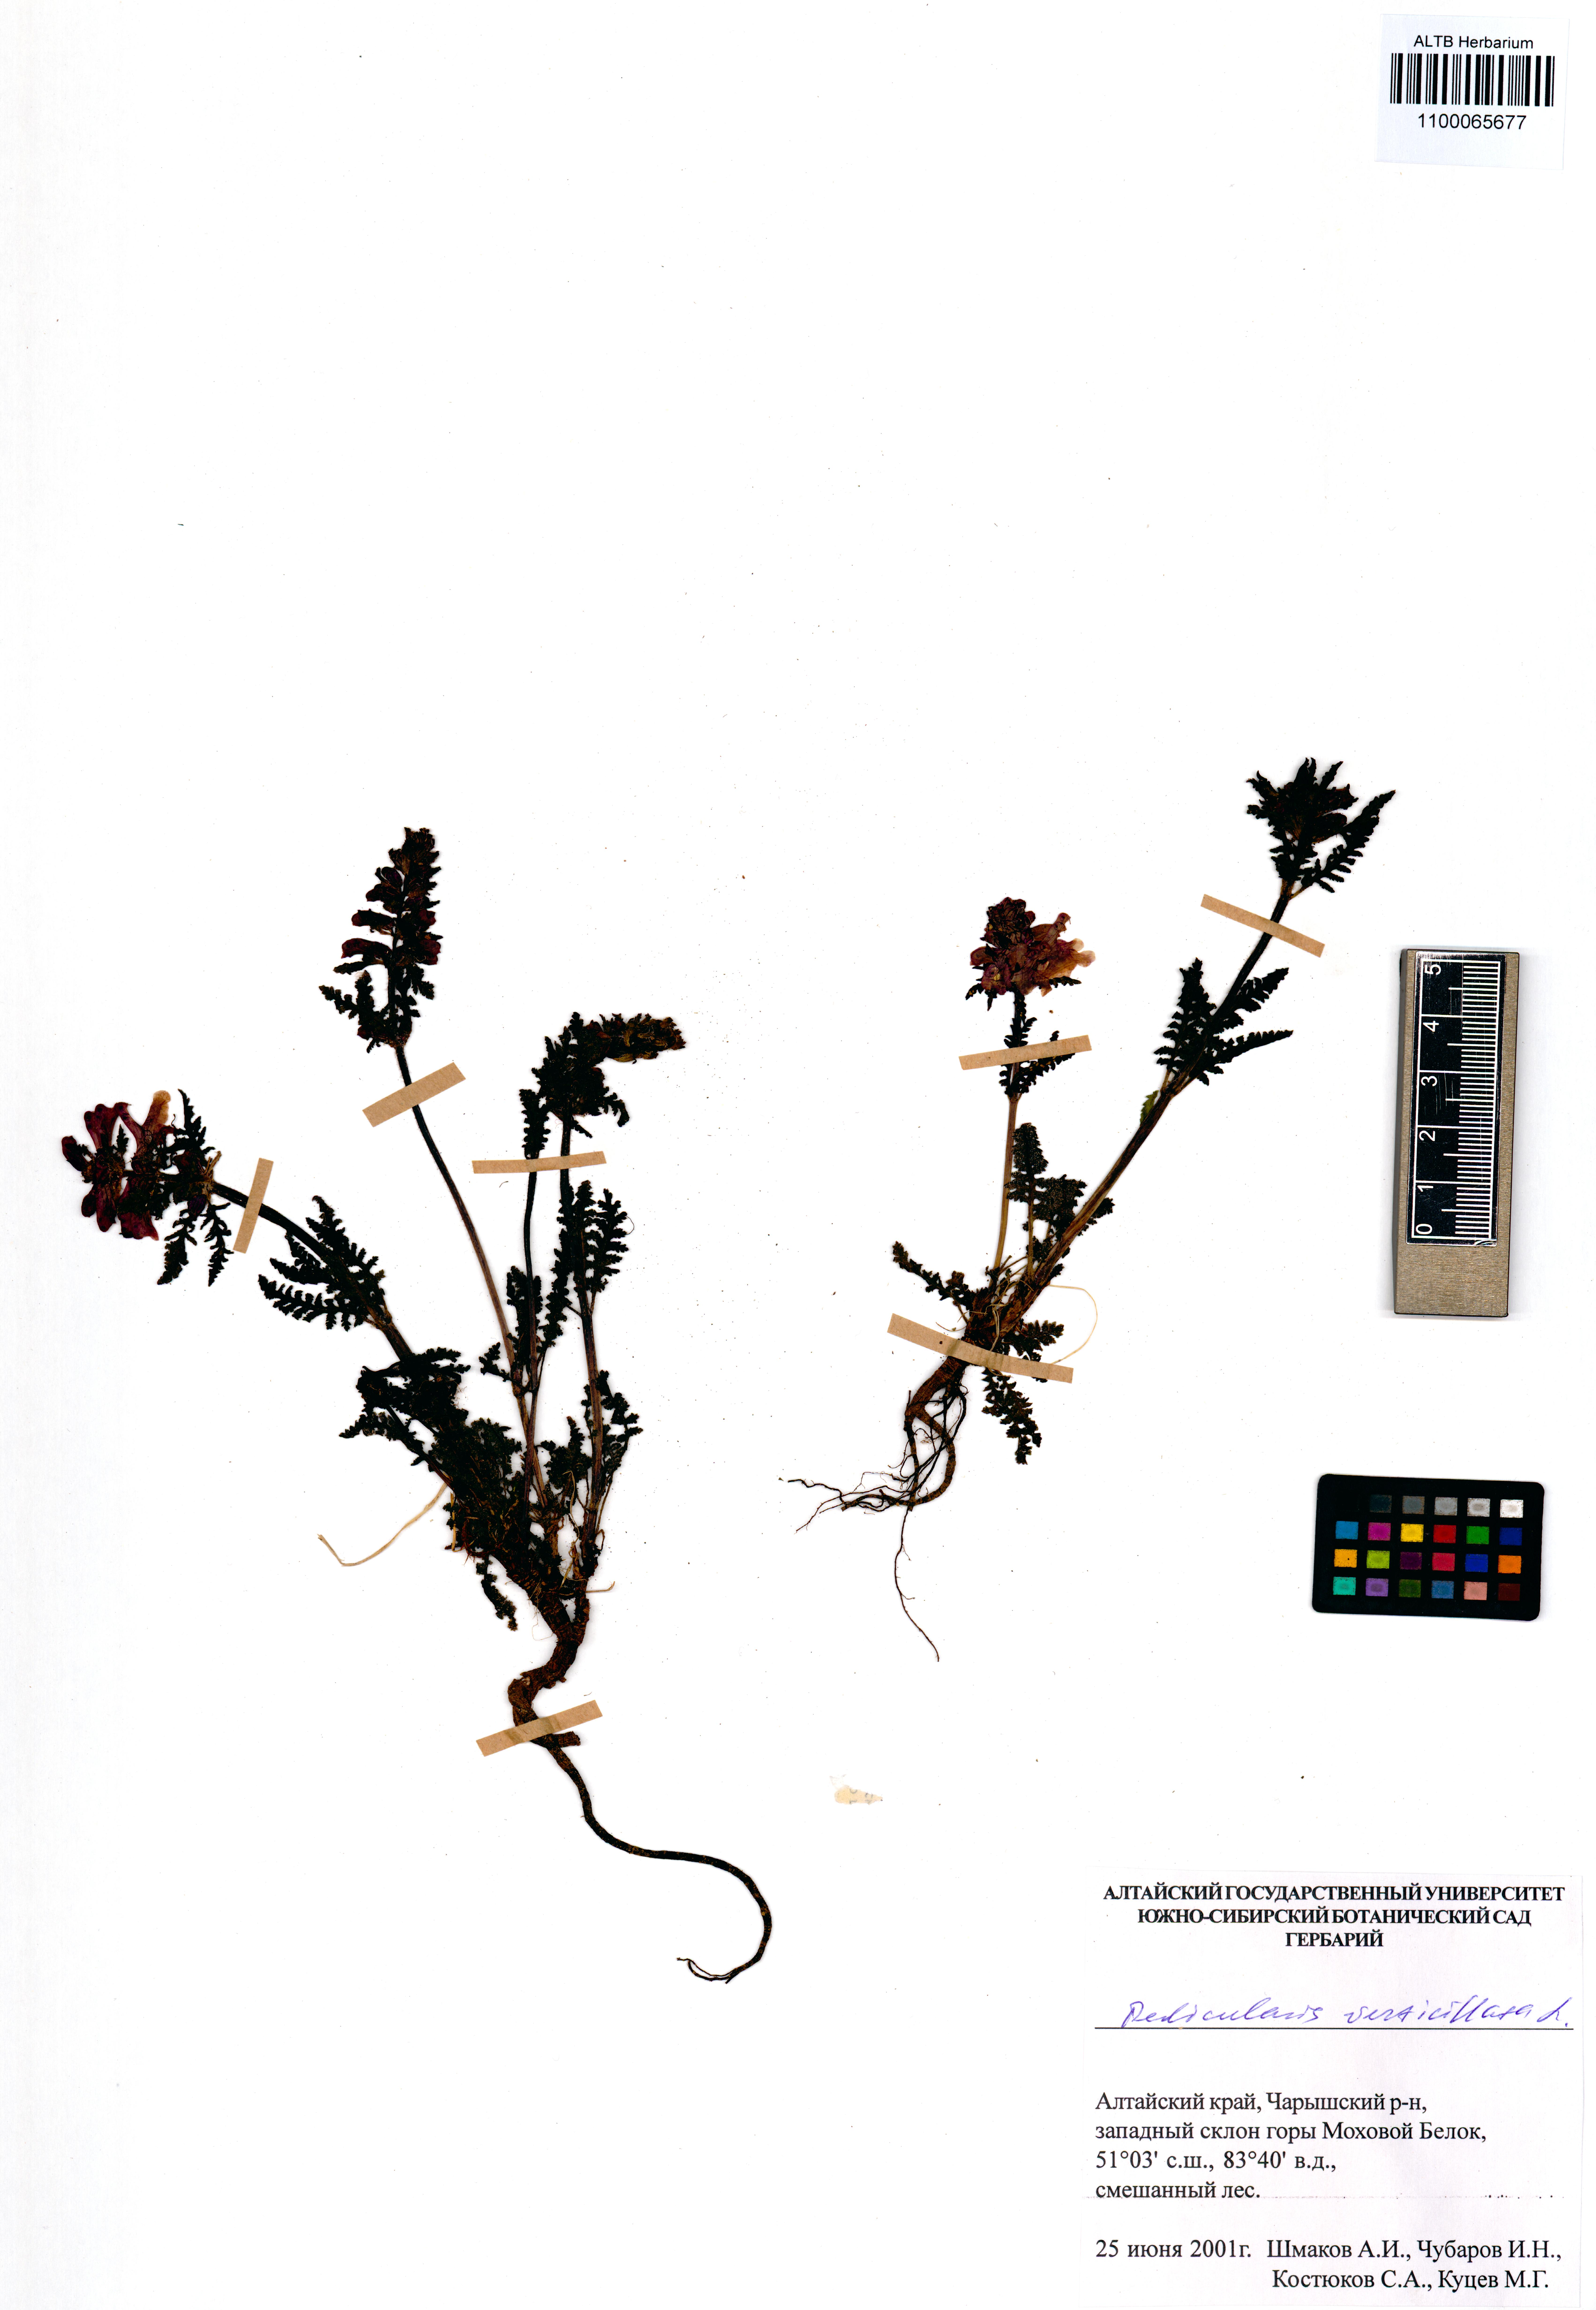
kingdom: Plantae
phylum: Tracheophyta
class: Magnoliopsida
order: Lamiales
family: Orobanchaceae
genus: Pedicularis
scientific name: Pedicularis verticillata
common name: Whorled lousewort
